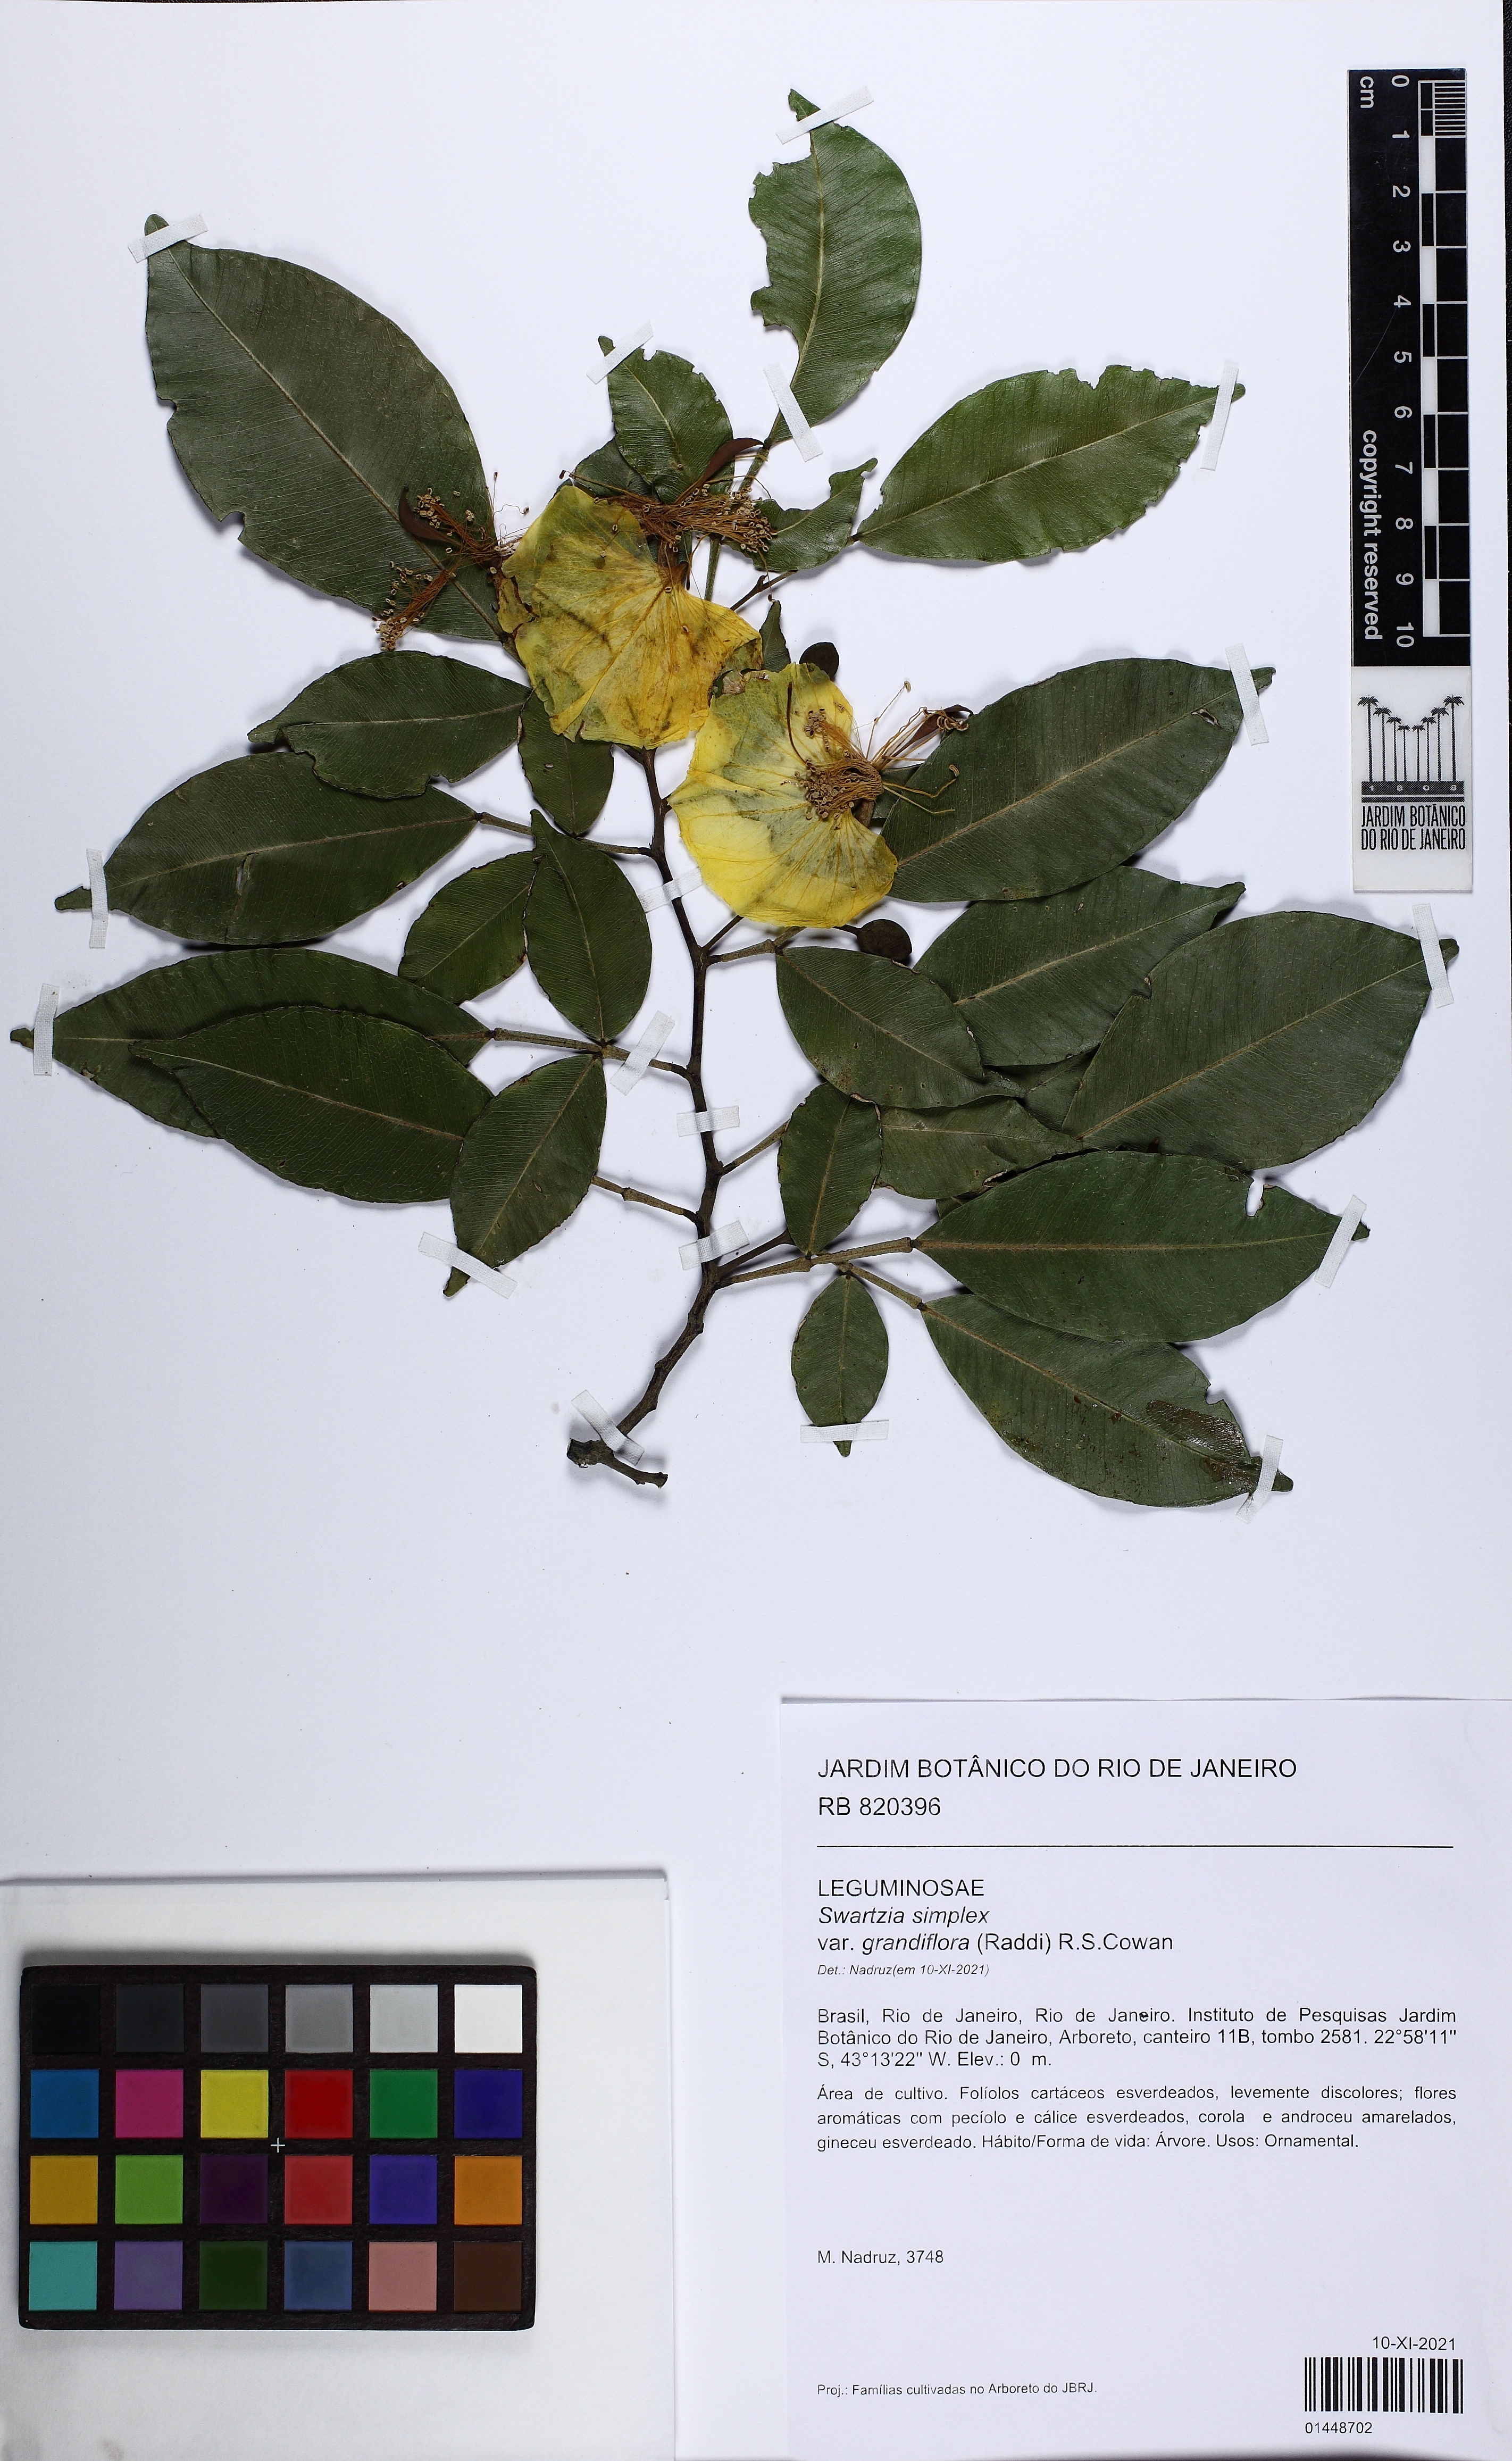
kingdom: Plantae
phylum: Tracheophyta
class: Magnoliopsida
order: Fabales
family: Fabaceae
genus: Swartzia
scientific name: Swartzia simplex
